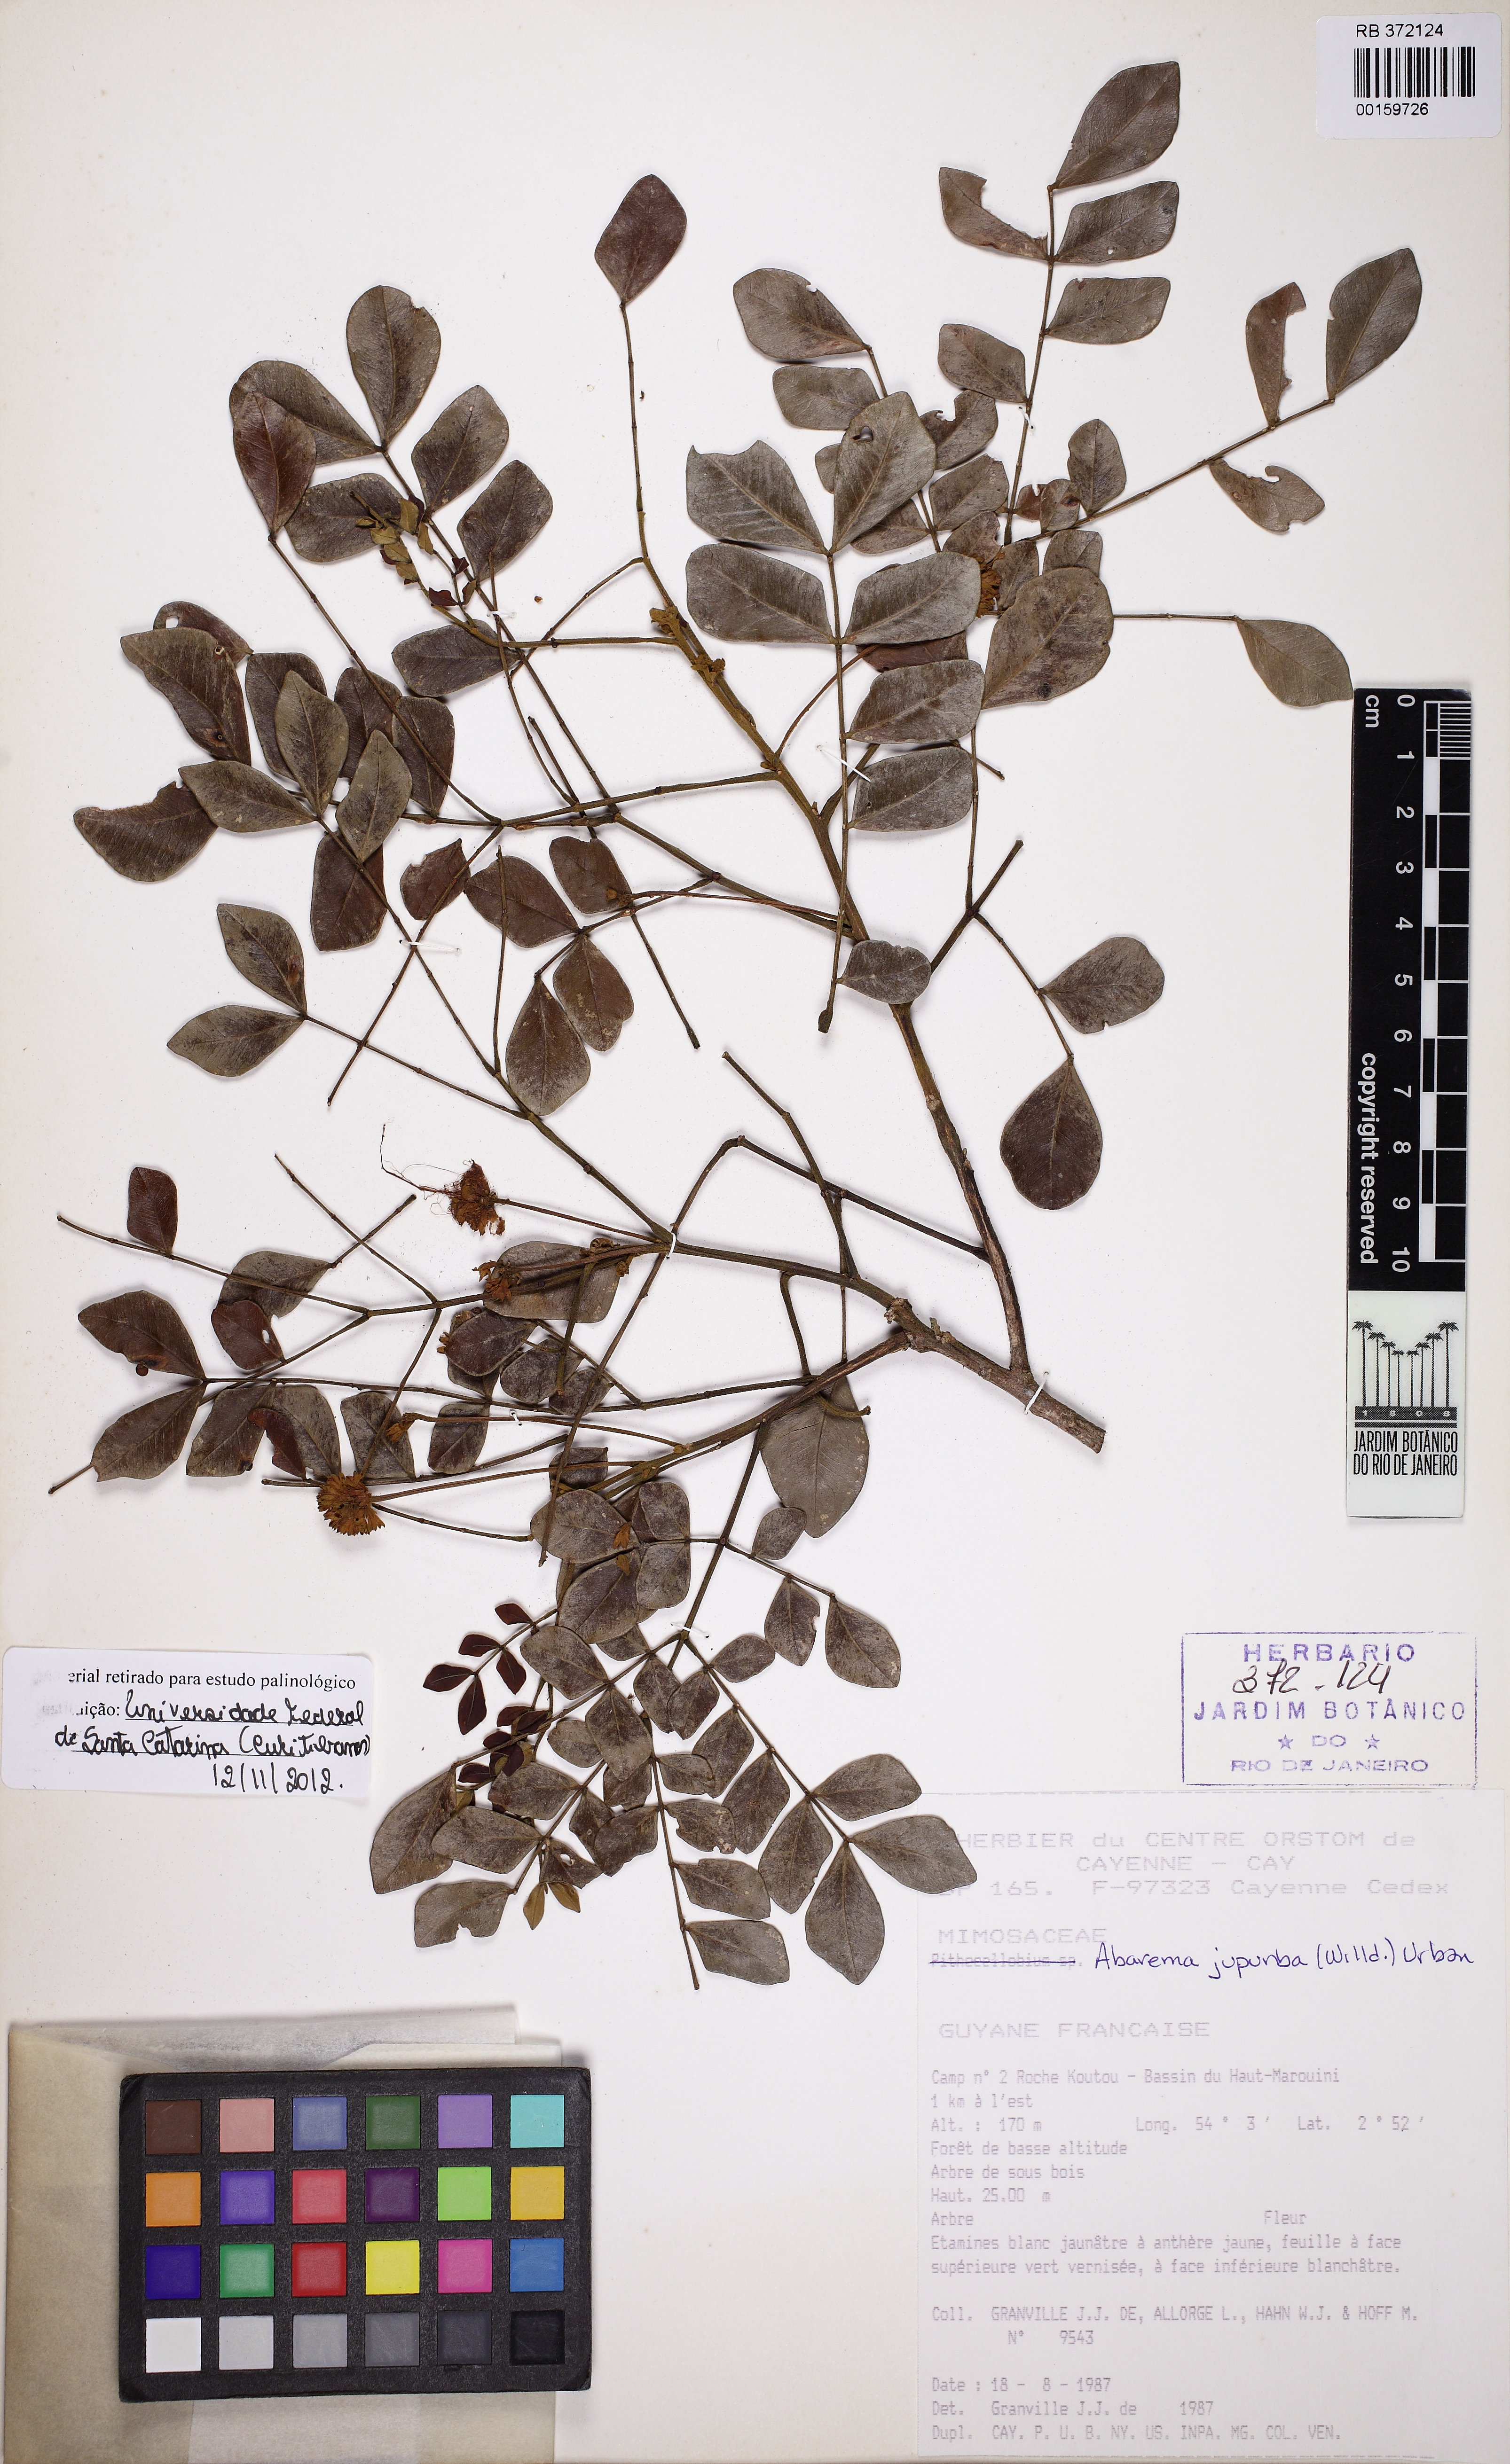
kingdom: Plantae
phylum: Tracheophyta
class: Magnoliopsida
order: Fabales
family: Fabaceae
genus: Jupunba
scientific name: Jupunba trapezifolia
